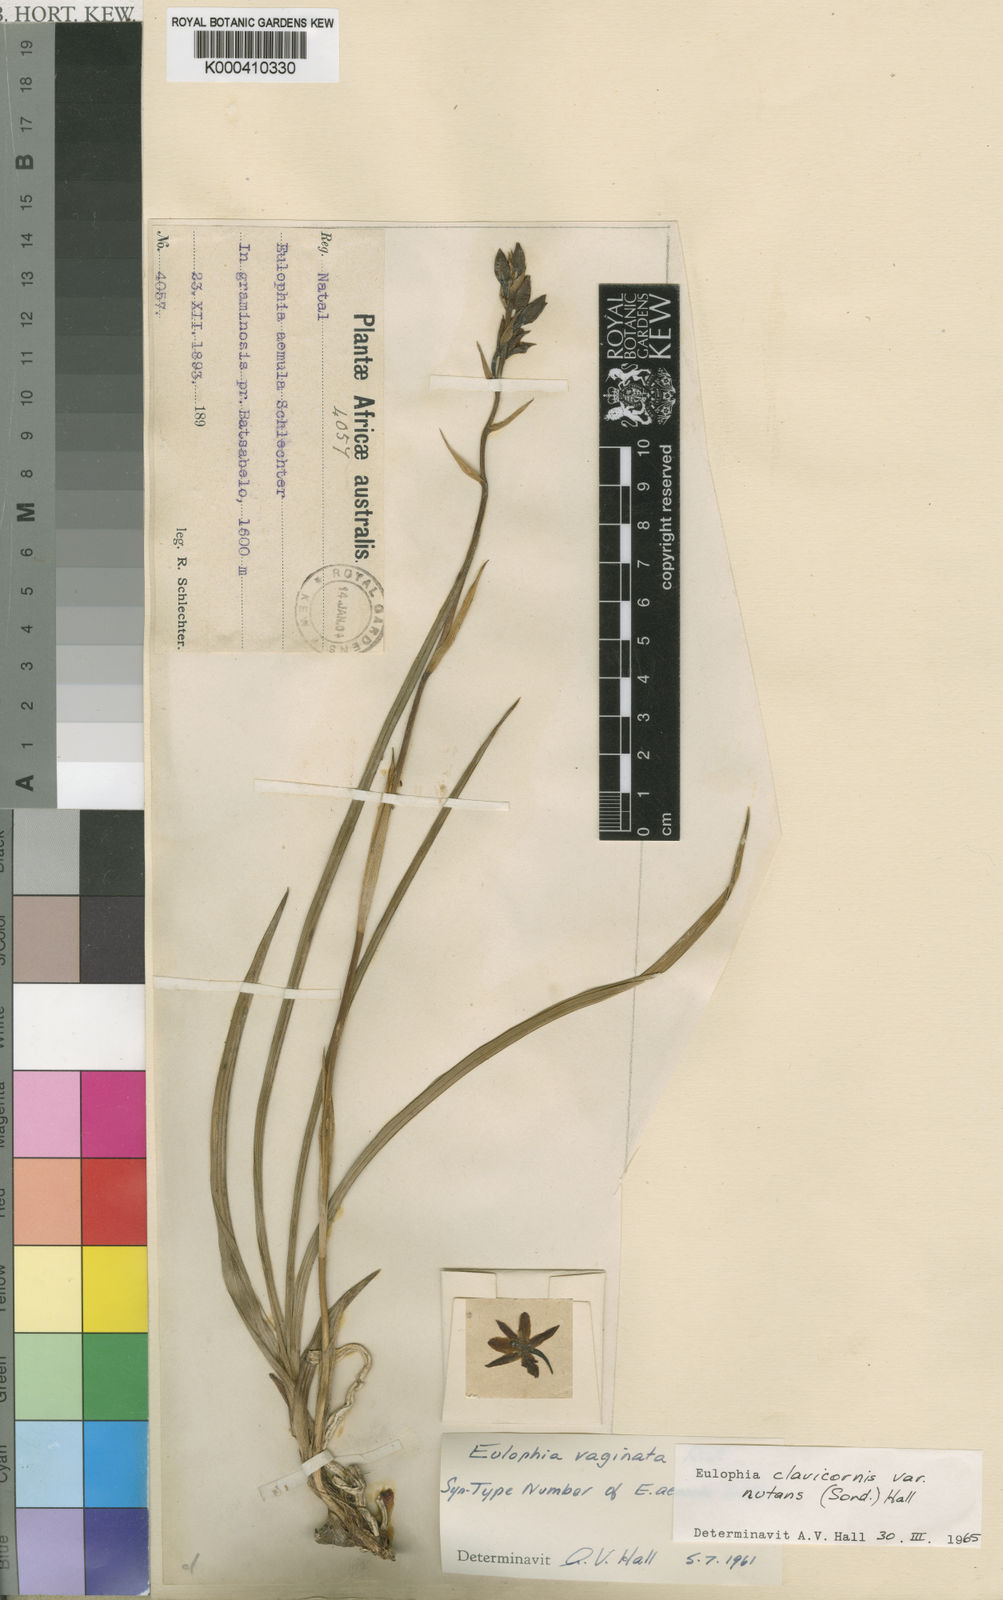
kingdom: Plantae
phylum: Tracheophyta
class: Liliopsida
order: Asparagales
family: Orchidaceae
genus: Eulophia
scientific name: Eulophia hians
